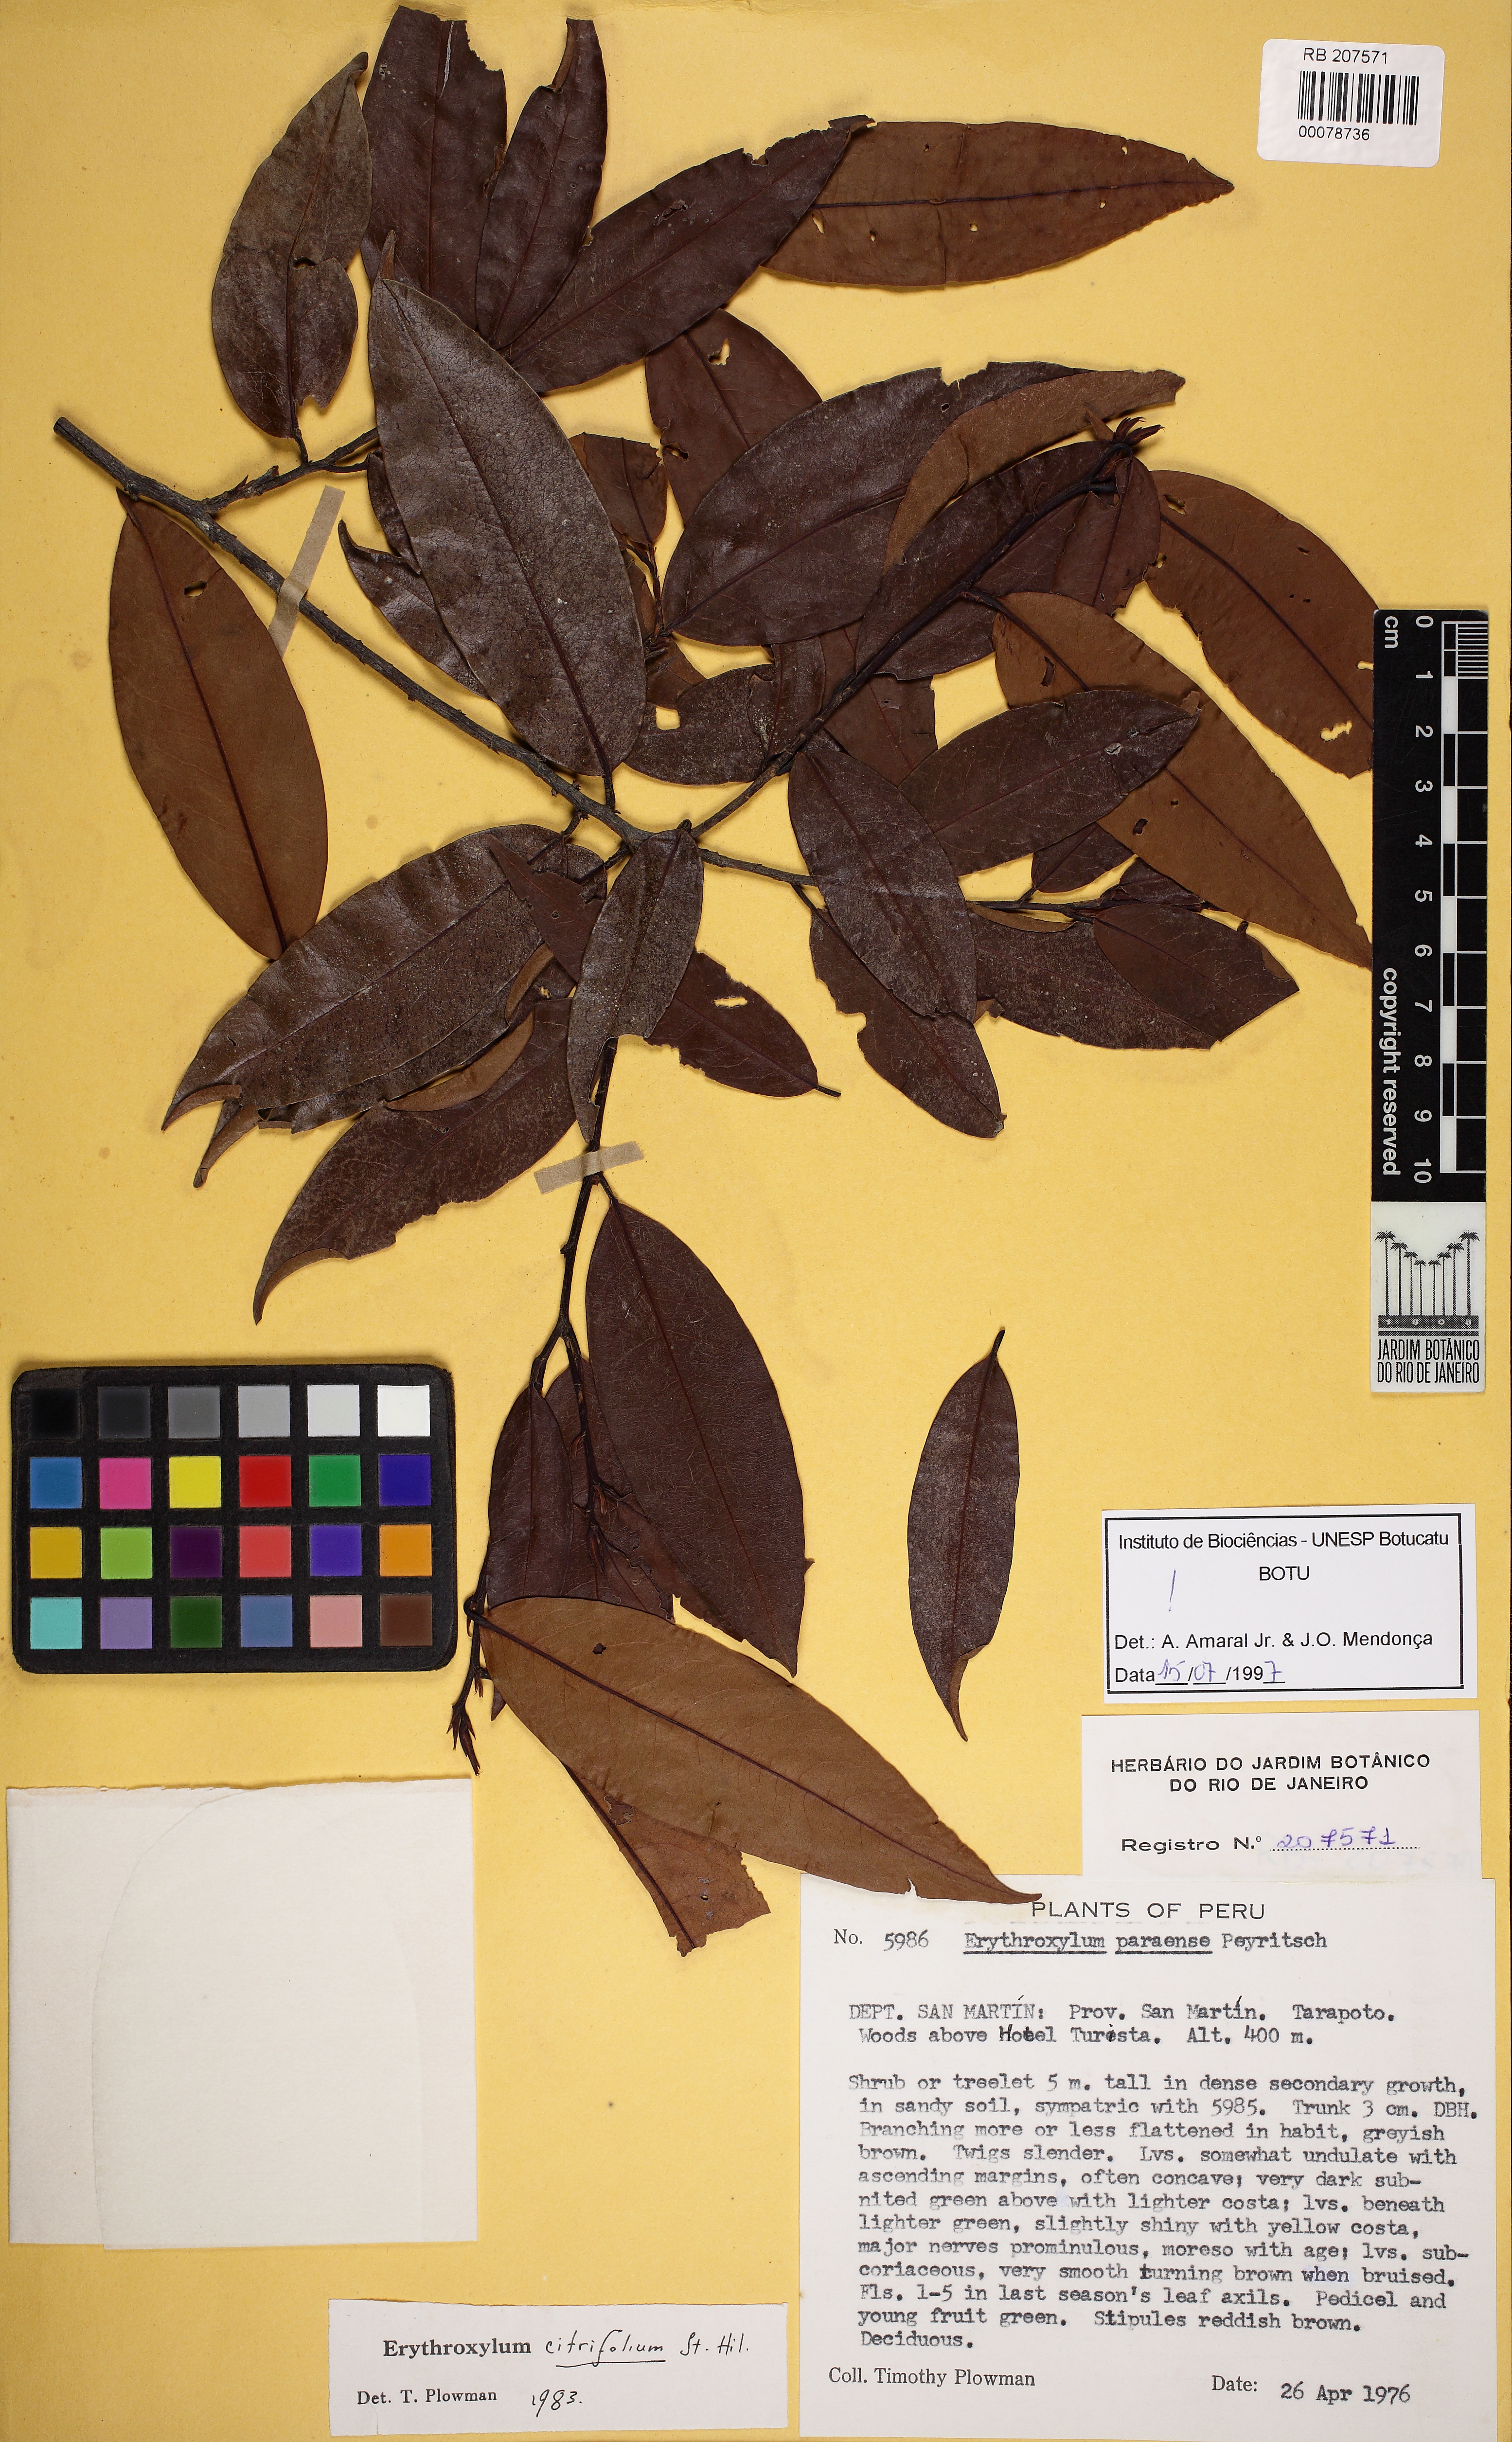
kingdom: Plantae
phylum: Tracheophyta
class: Magnoliopsida
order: Malpighiales
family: Erythroxylaceae
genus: Erythroxylum
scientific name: Erythroxylum citrifolium
